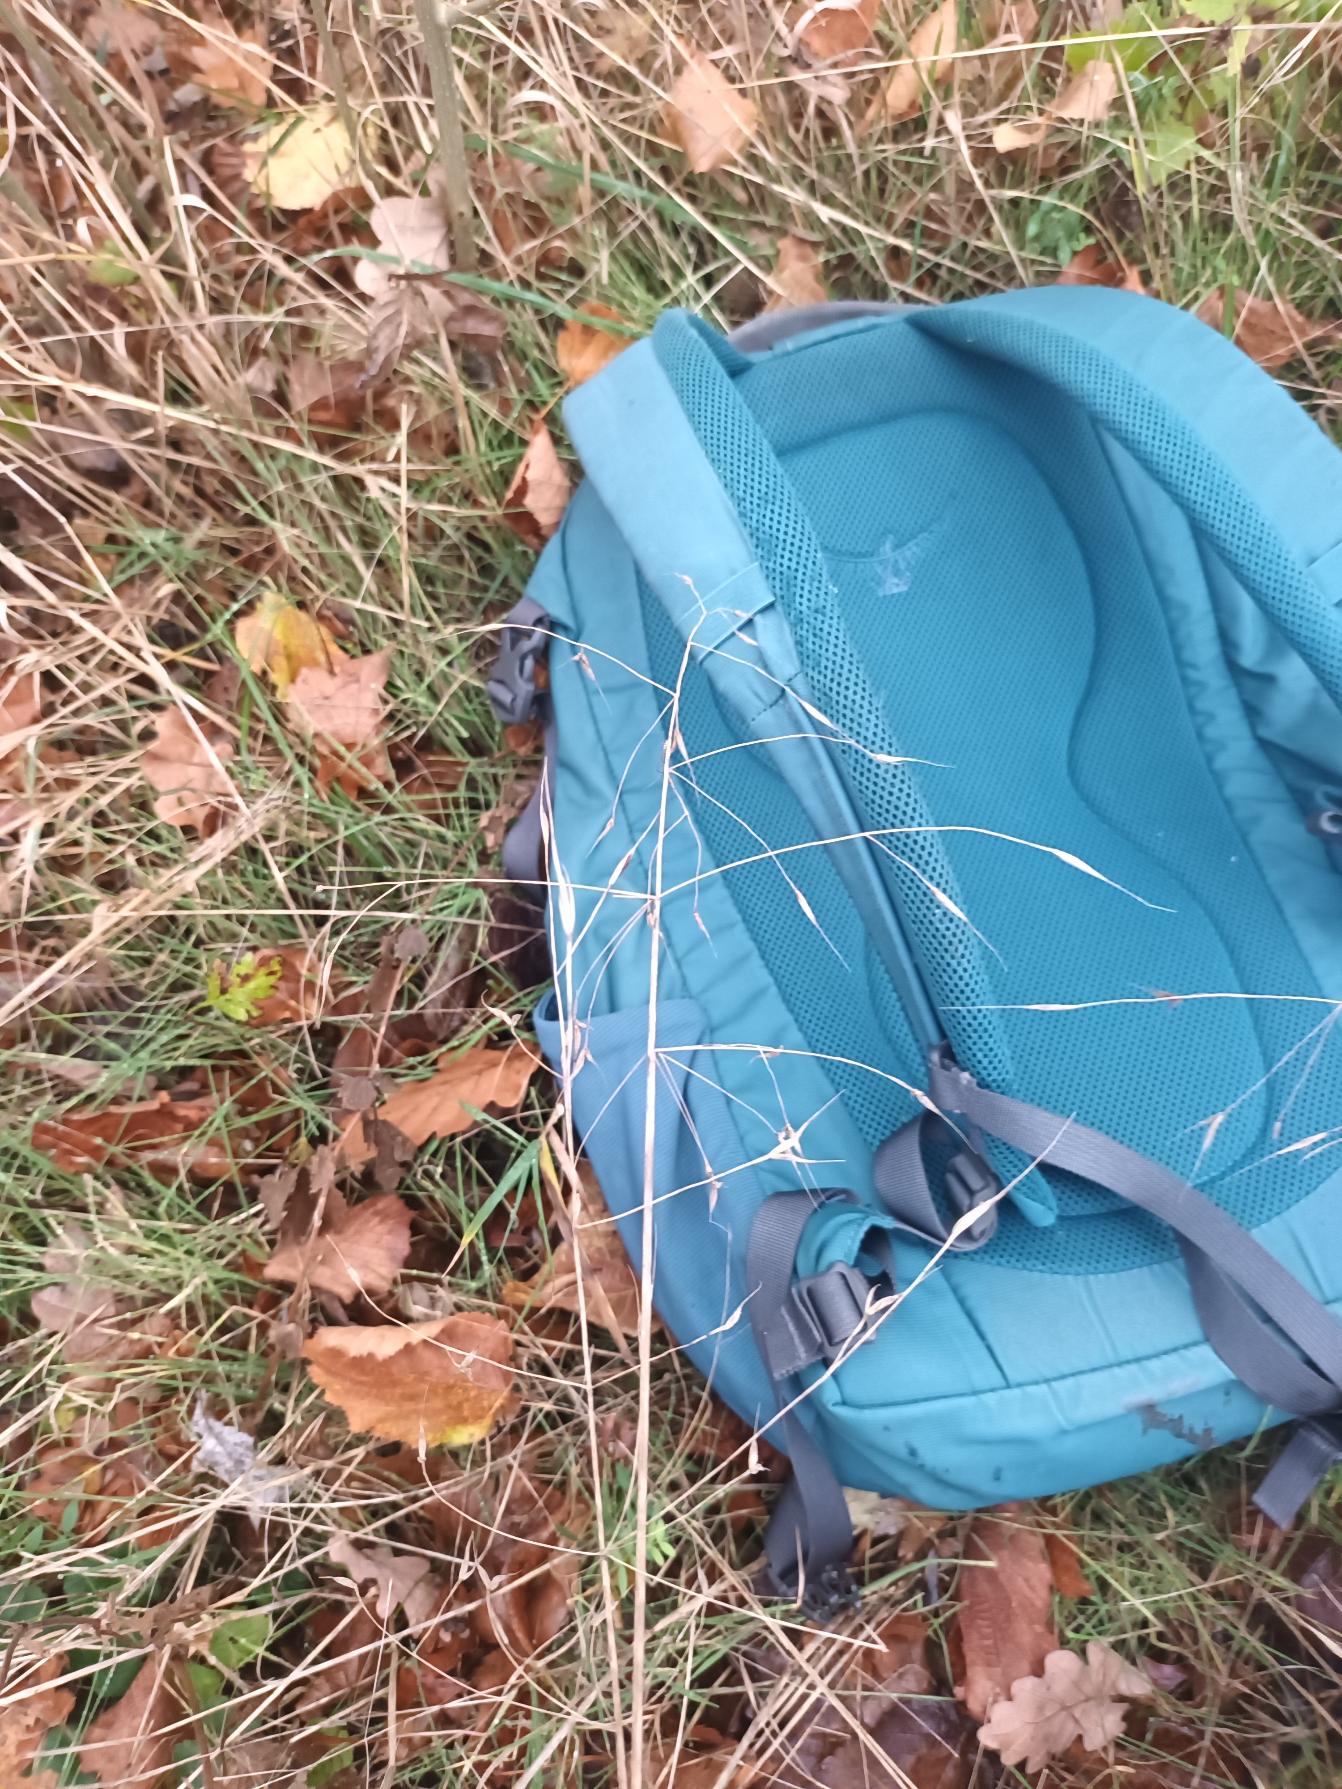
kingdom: Plantae
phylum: Tracheophyta
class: Liliopsida
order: Poales
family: Poaceae
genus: Bromus
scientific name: Bromus sterilis
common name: Gold hejre
